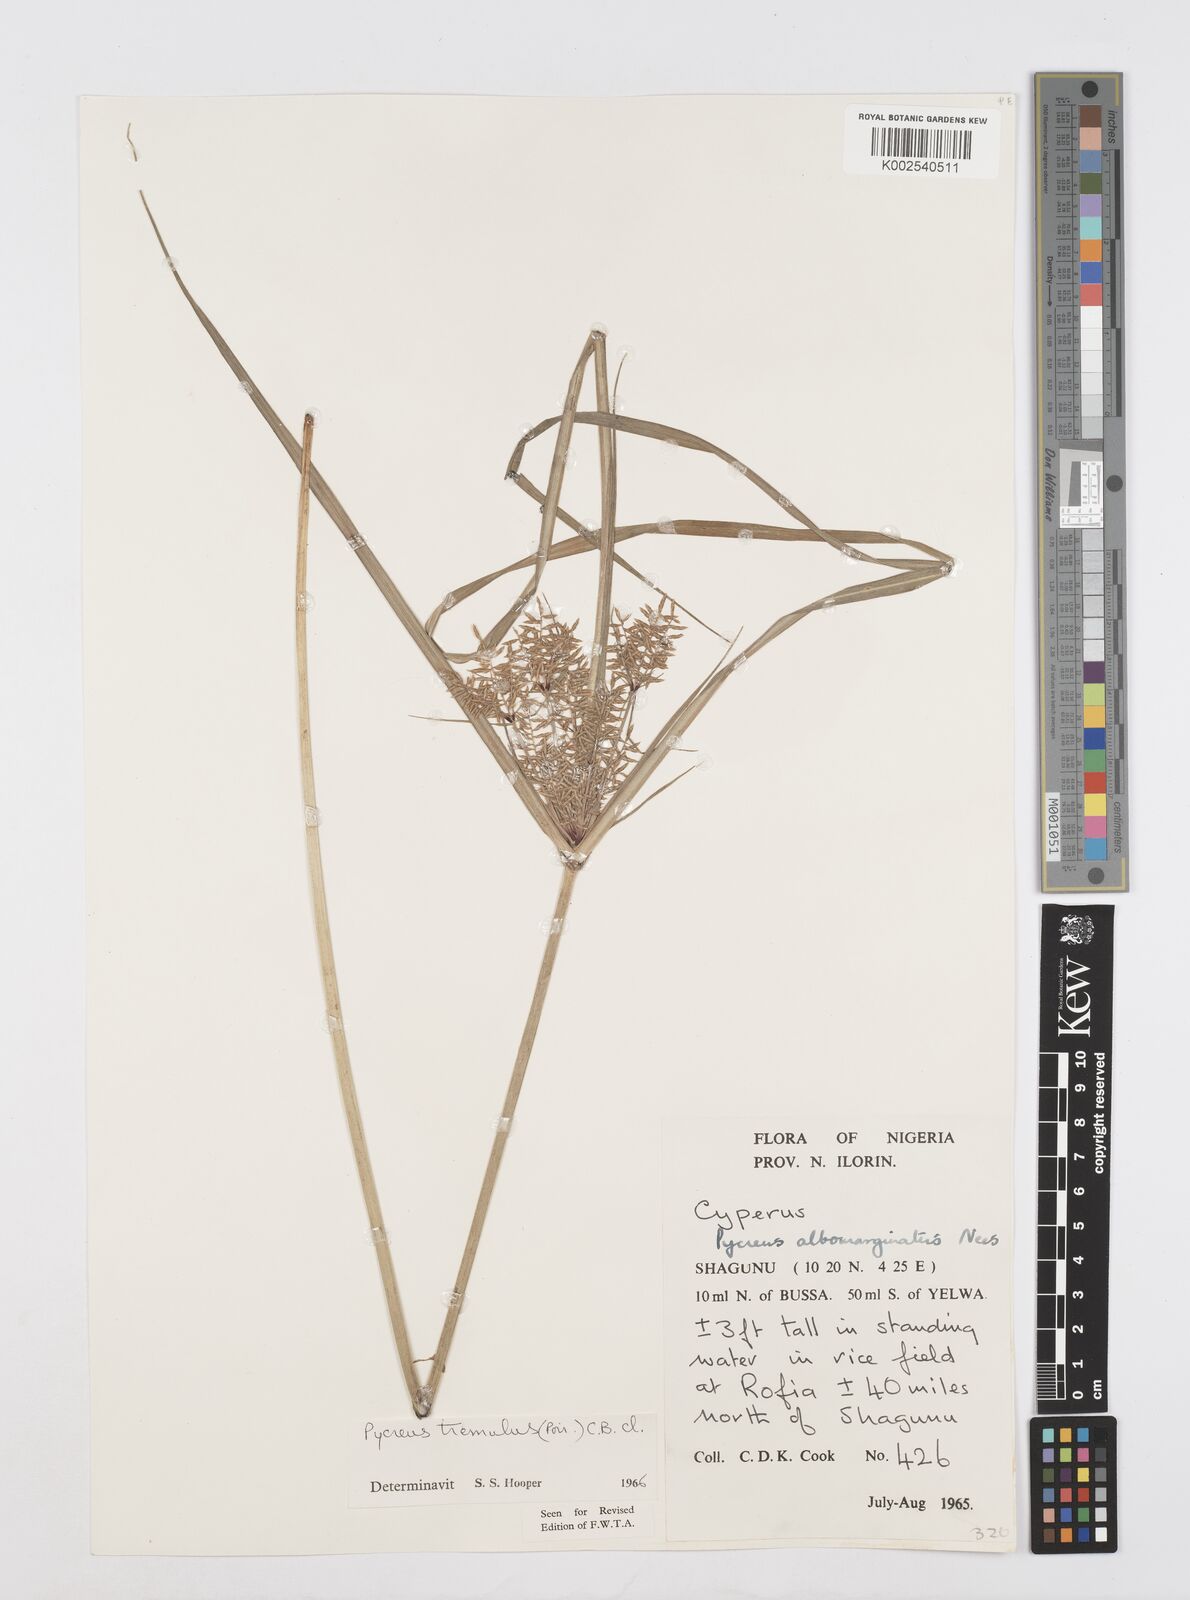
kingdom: Plantae
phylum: Tracheophyta
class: Liliopsida
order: Poales
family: Cyperaceae
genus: Cyperus
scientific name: Cyperus macrostachyos
